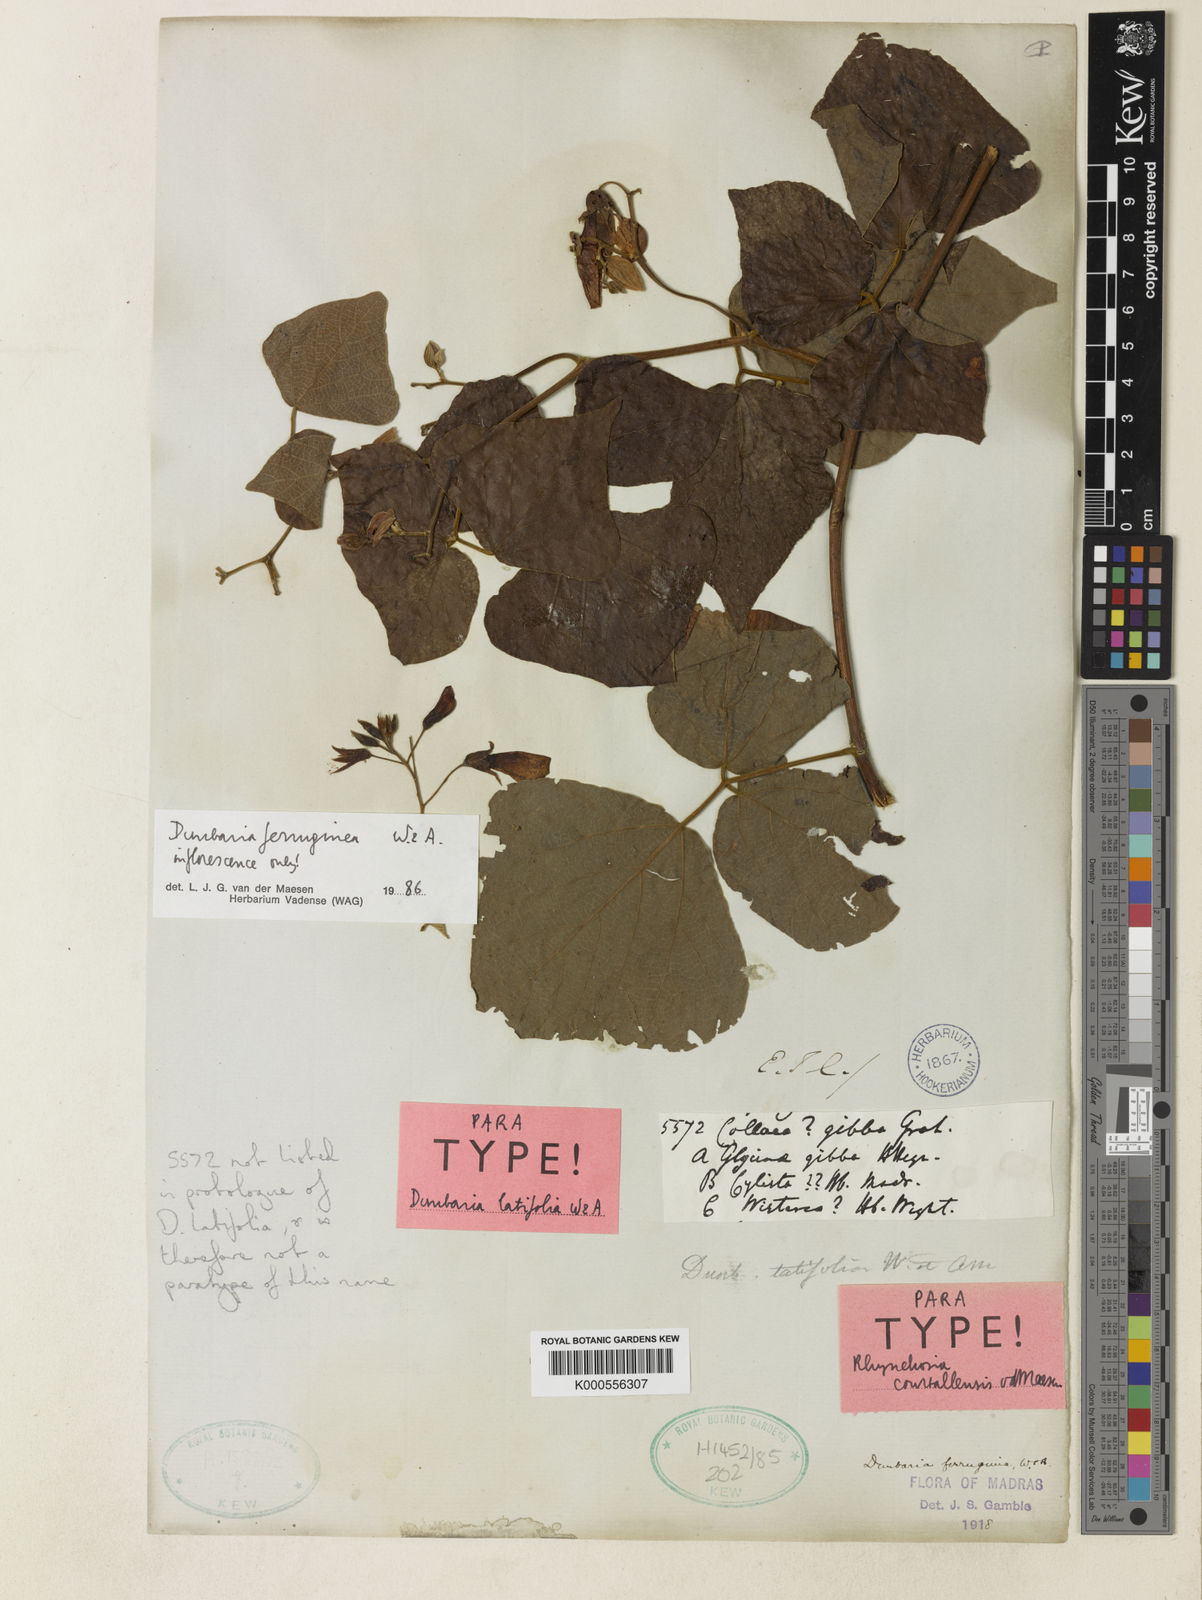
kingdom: Plantae
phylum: Tracheophyta
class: Magnoliopsida
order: Fabales
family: Fabaceae
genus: Dunbaria
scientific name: Dunbaria ferruginea
